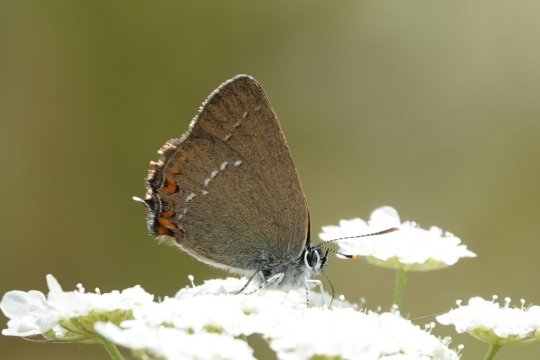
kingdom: Animalia
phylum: Arthropoda
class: Insecta
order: Lepidoptera
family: Lycaenidae
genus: Strymon
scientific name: Strymon acaciae
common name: Sloe Hairstreak
